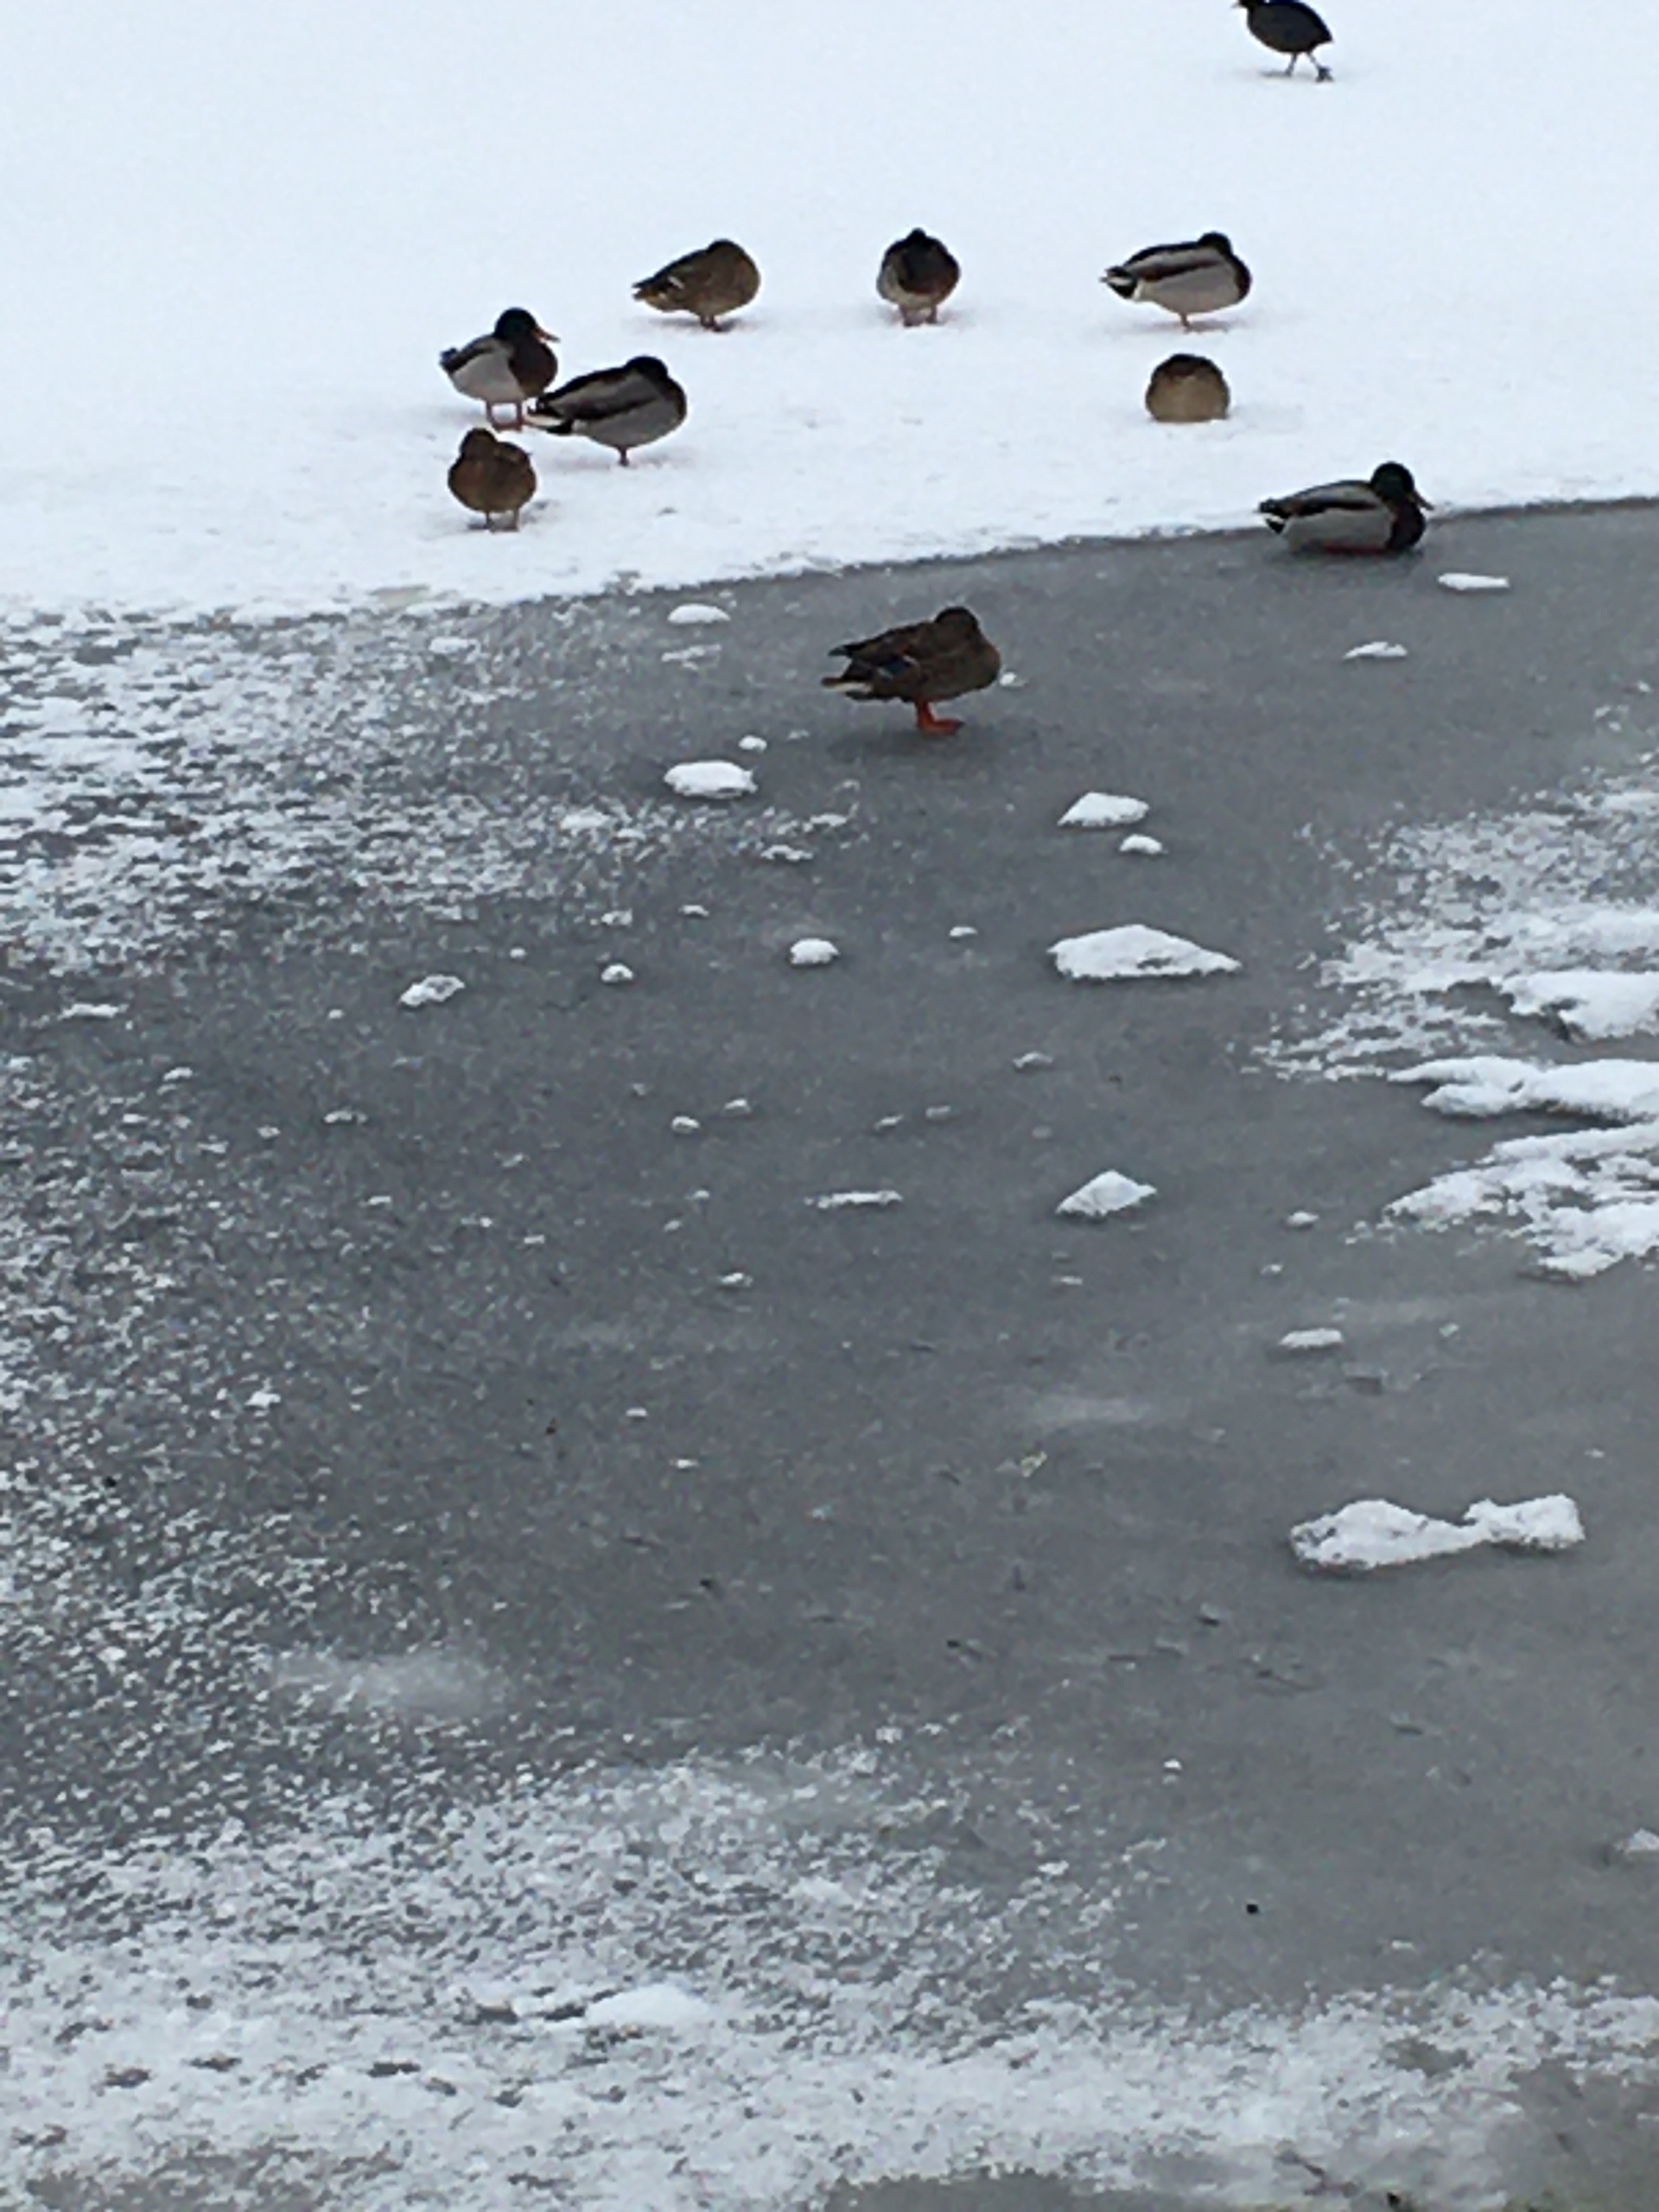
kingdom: Animalia
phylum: Chordata
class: Aves
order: Anseriformes
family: Anatidae
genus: Anas
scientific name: Anas platyrhynchos
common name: Gråand
